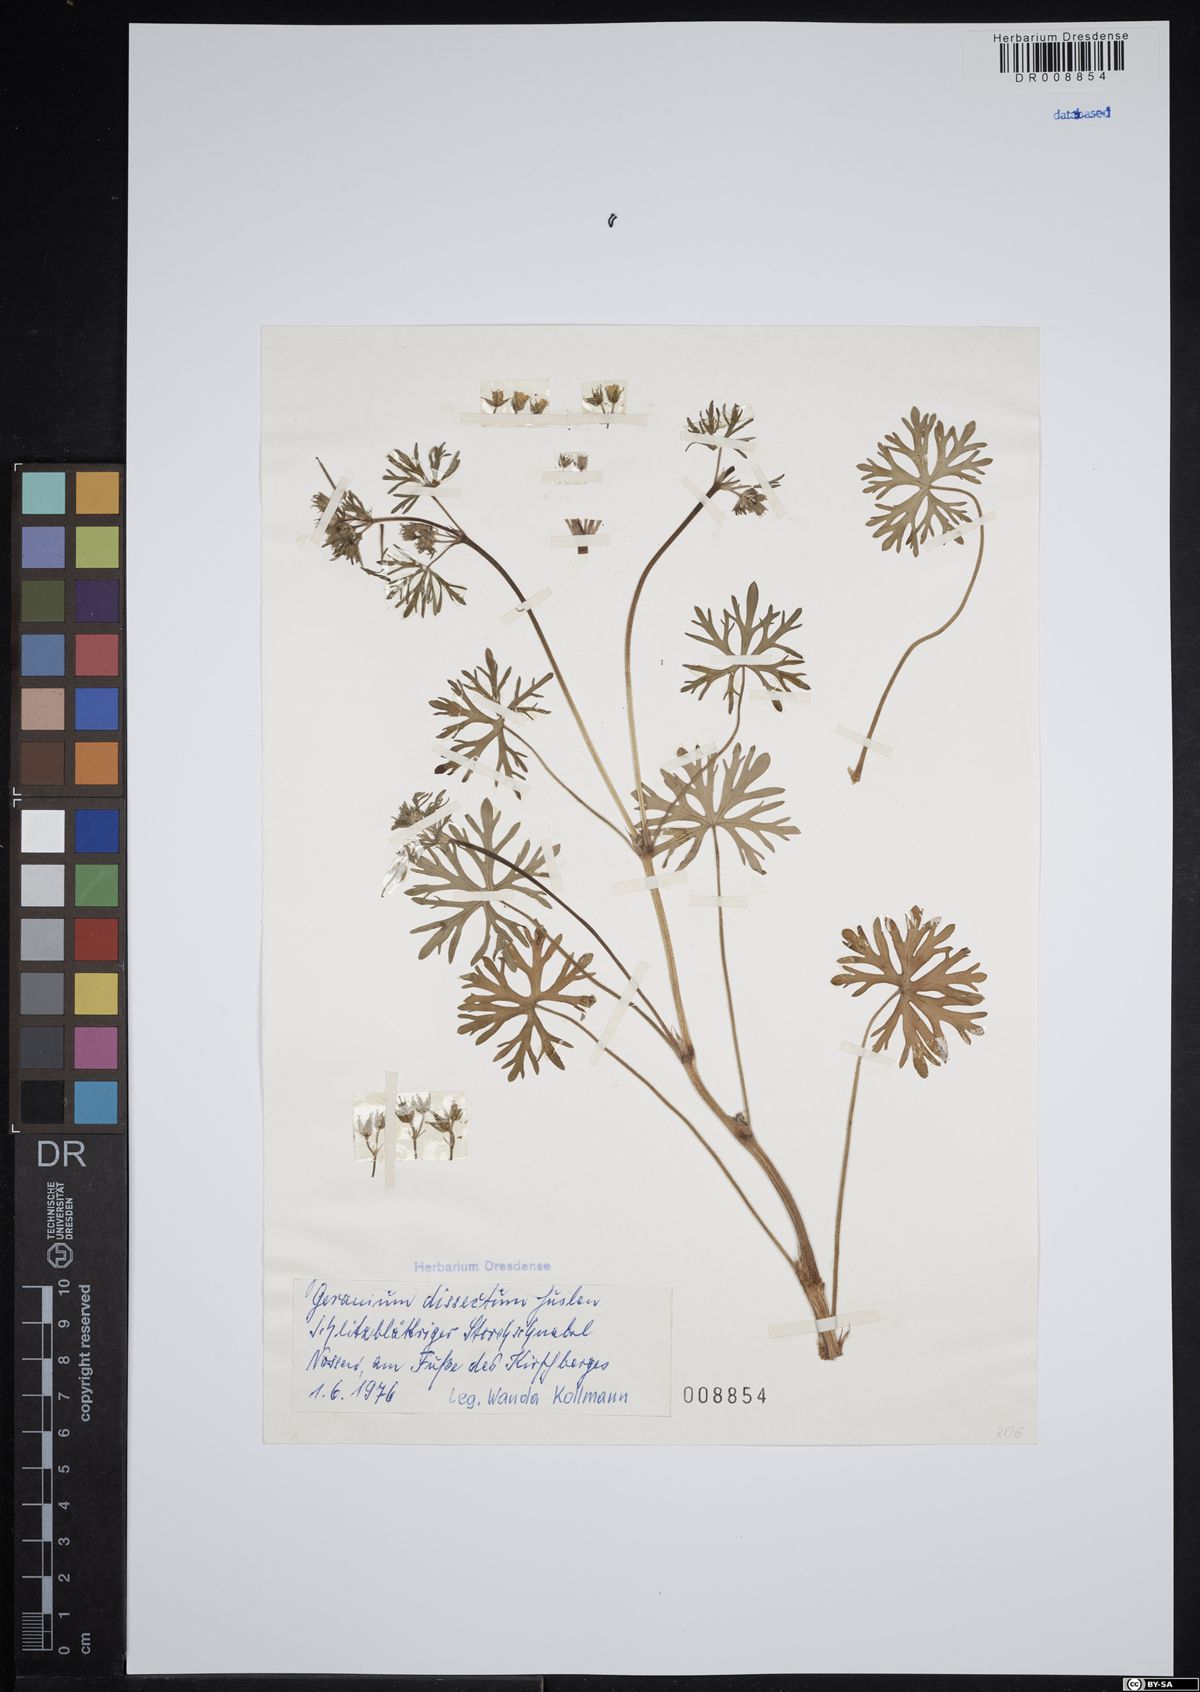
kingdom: Plantae
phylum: Tracheophyta
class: Magnoliopsida
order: Geraniales
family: Geraniaceae
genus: Geranium
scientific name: Geranium dissectum
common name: Cut-leaved crane's-bill
